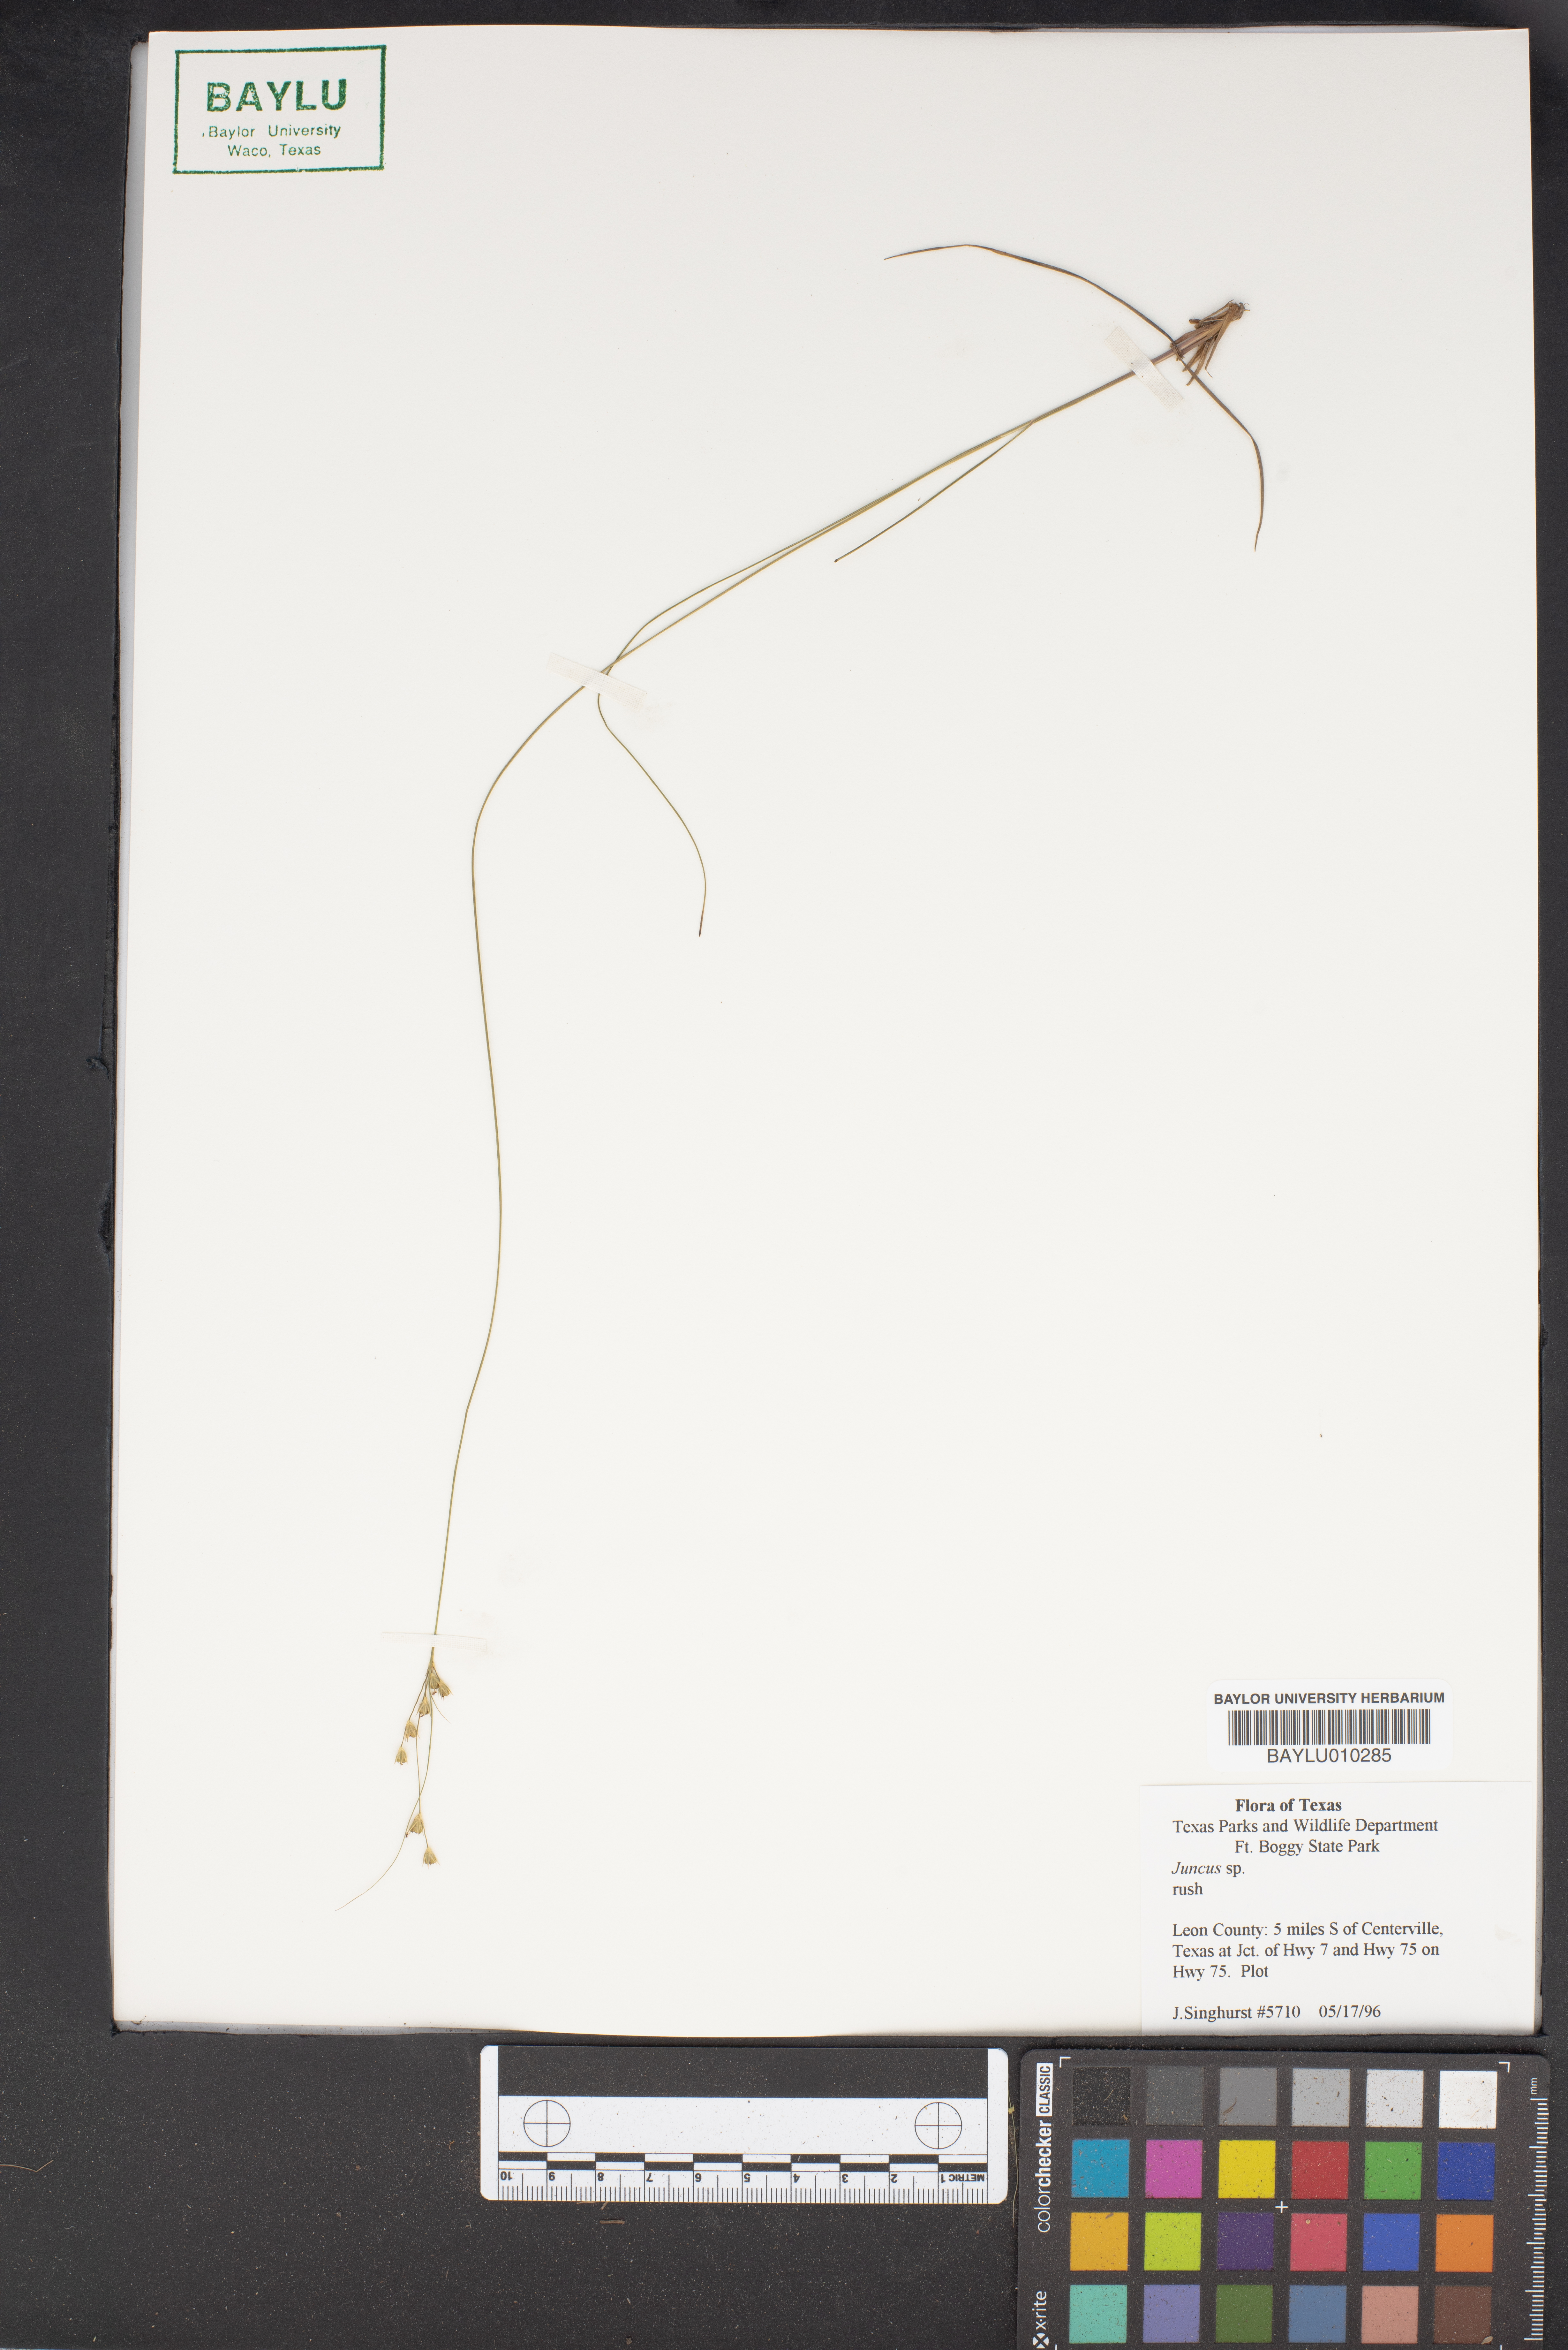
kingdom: Plantae
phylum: Tracheophyta
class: Liliopsida
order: Poales
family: Juncaceae
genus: Juncus
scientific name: Juncus
